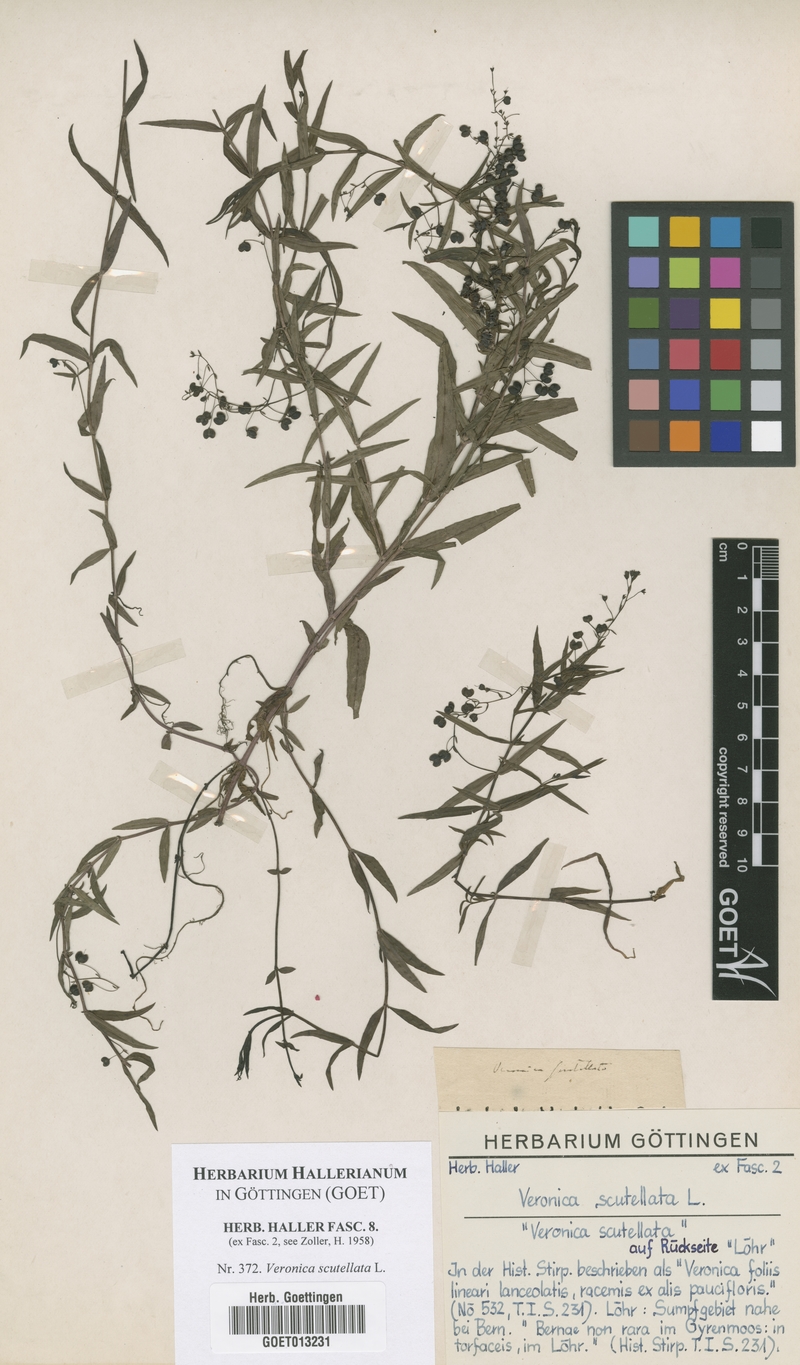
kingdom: Plantae
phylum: Tracheophyta
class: Magnoliopsida
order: Lamiales
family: Plantaginaceae
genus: Veronica
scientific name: Veronica scutellata
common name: Marsh speedwell
